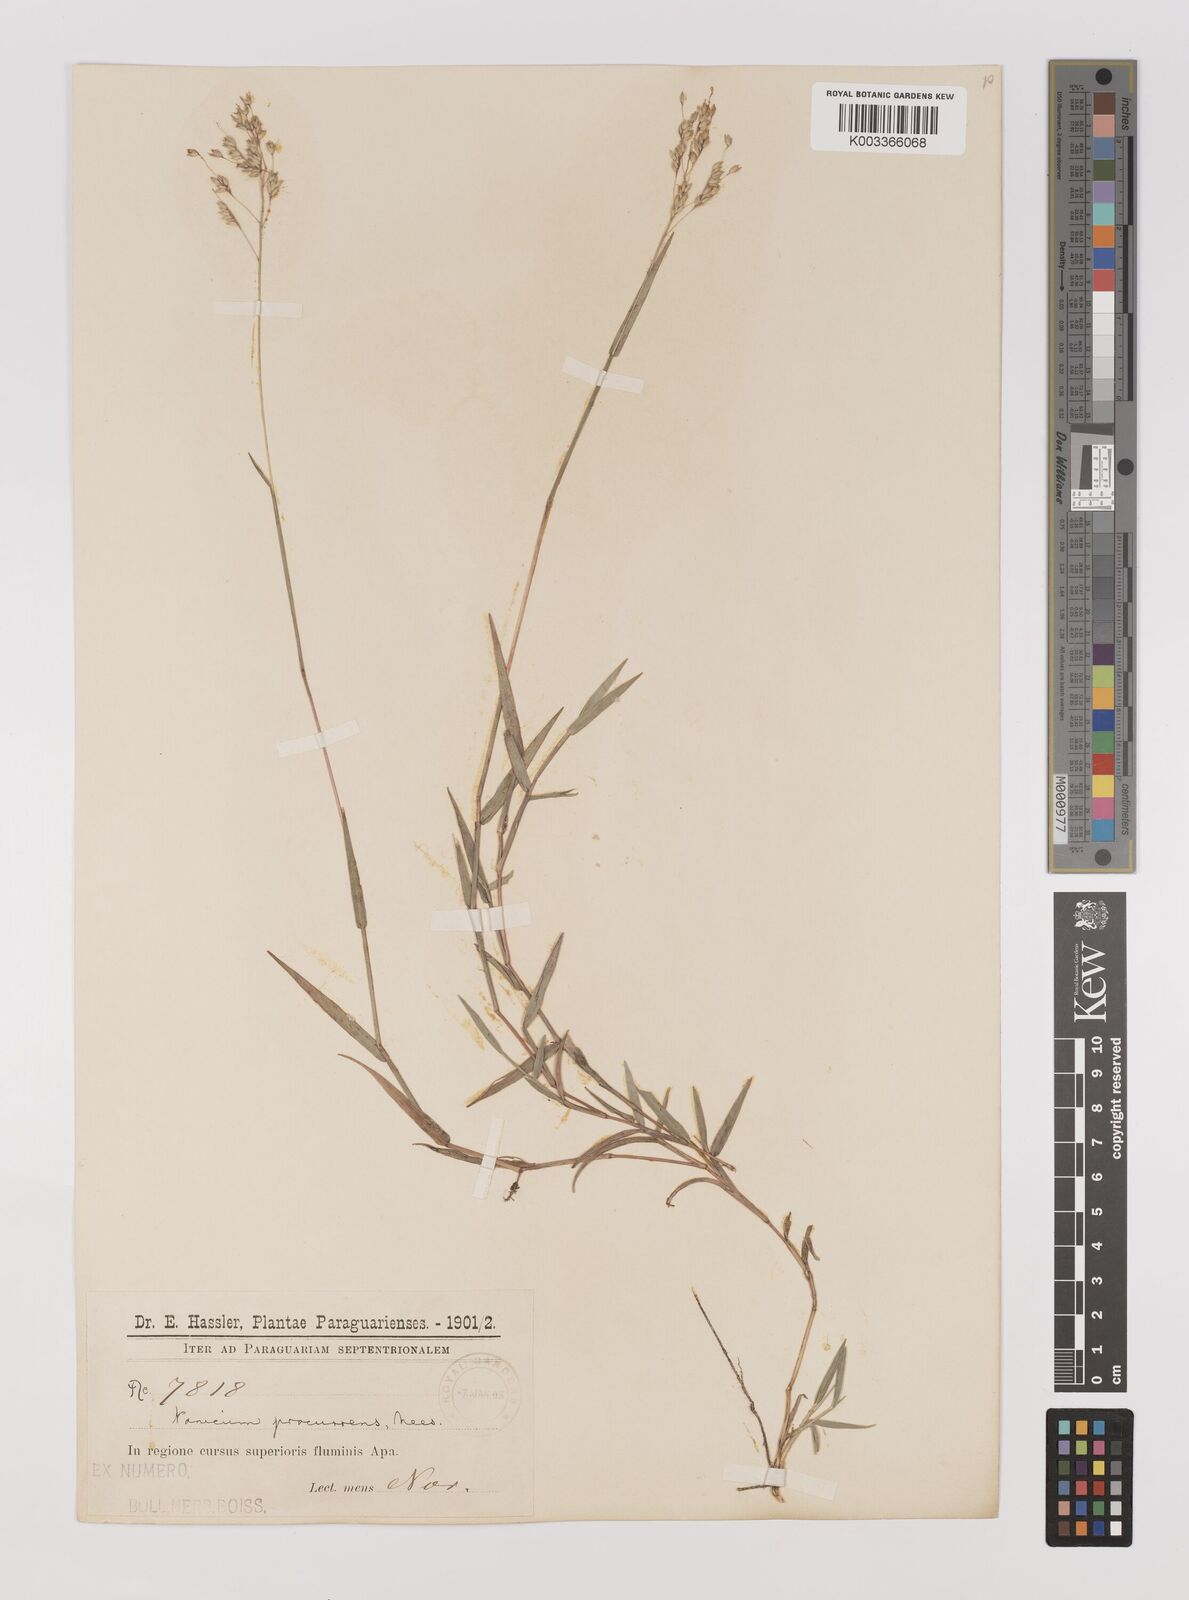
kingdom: Plantae
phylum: Tracheophyta
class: Liliopsida
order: Poales
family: Poaceae
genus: Oedochloa
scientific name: Oedochloa procurrens
